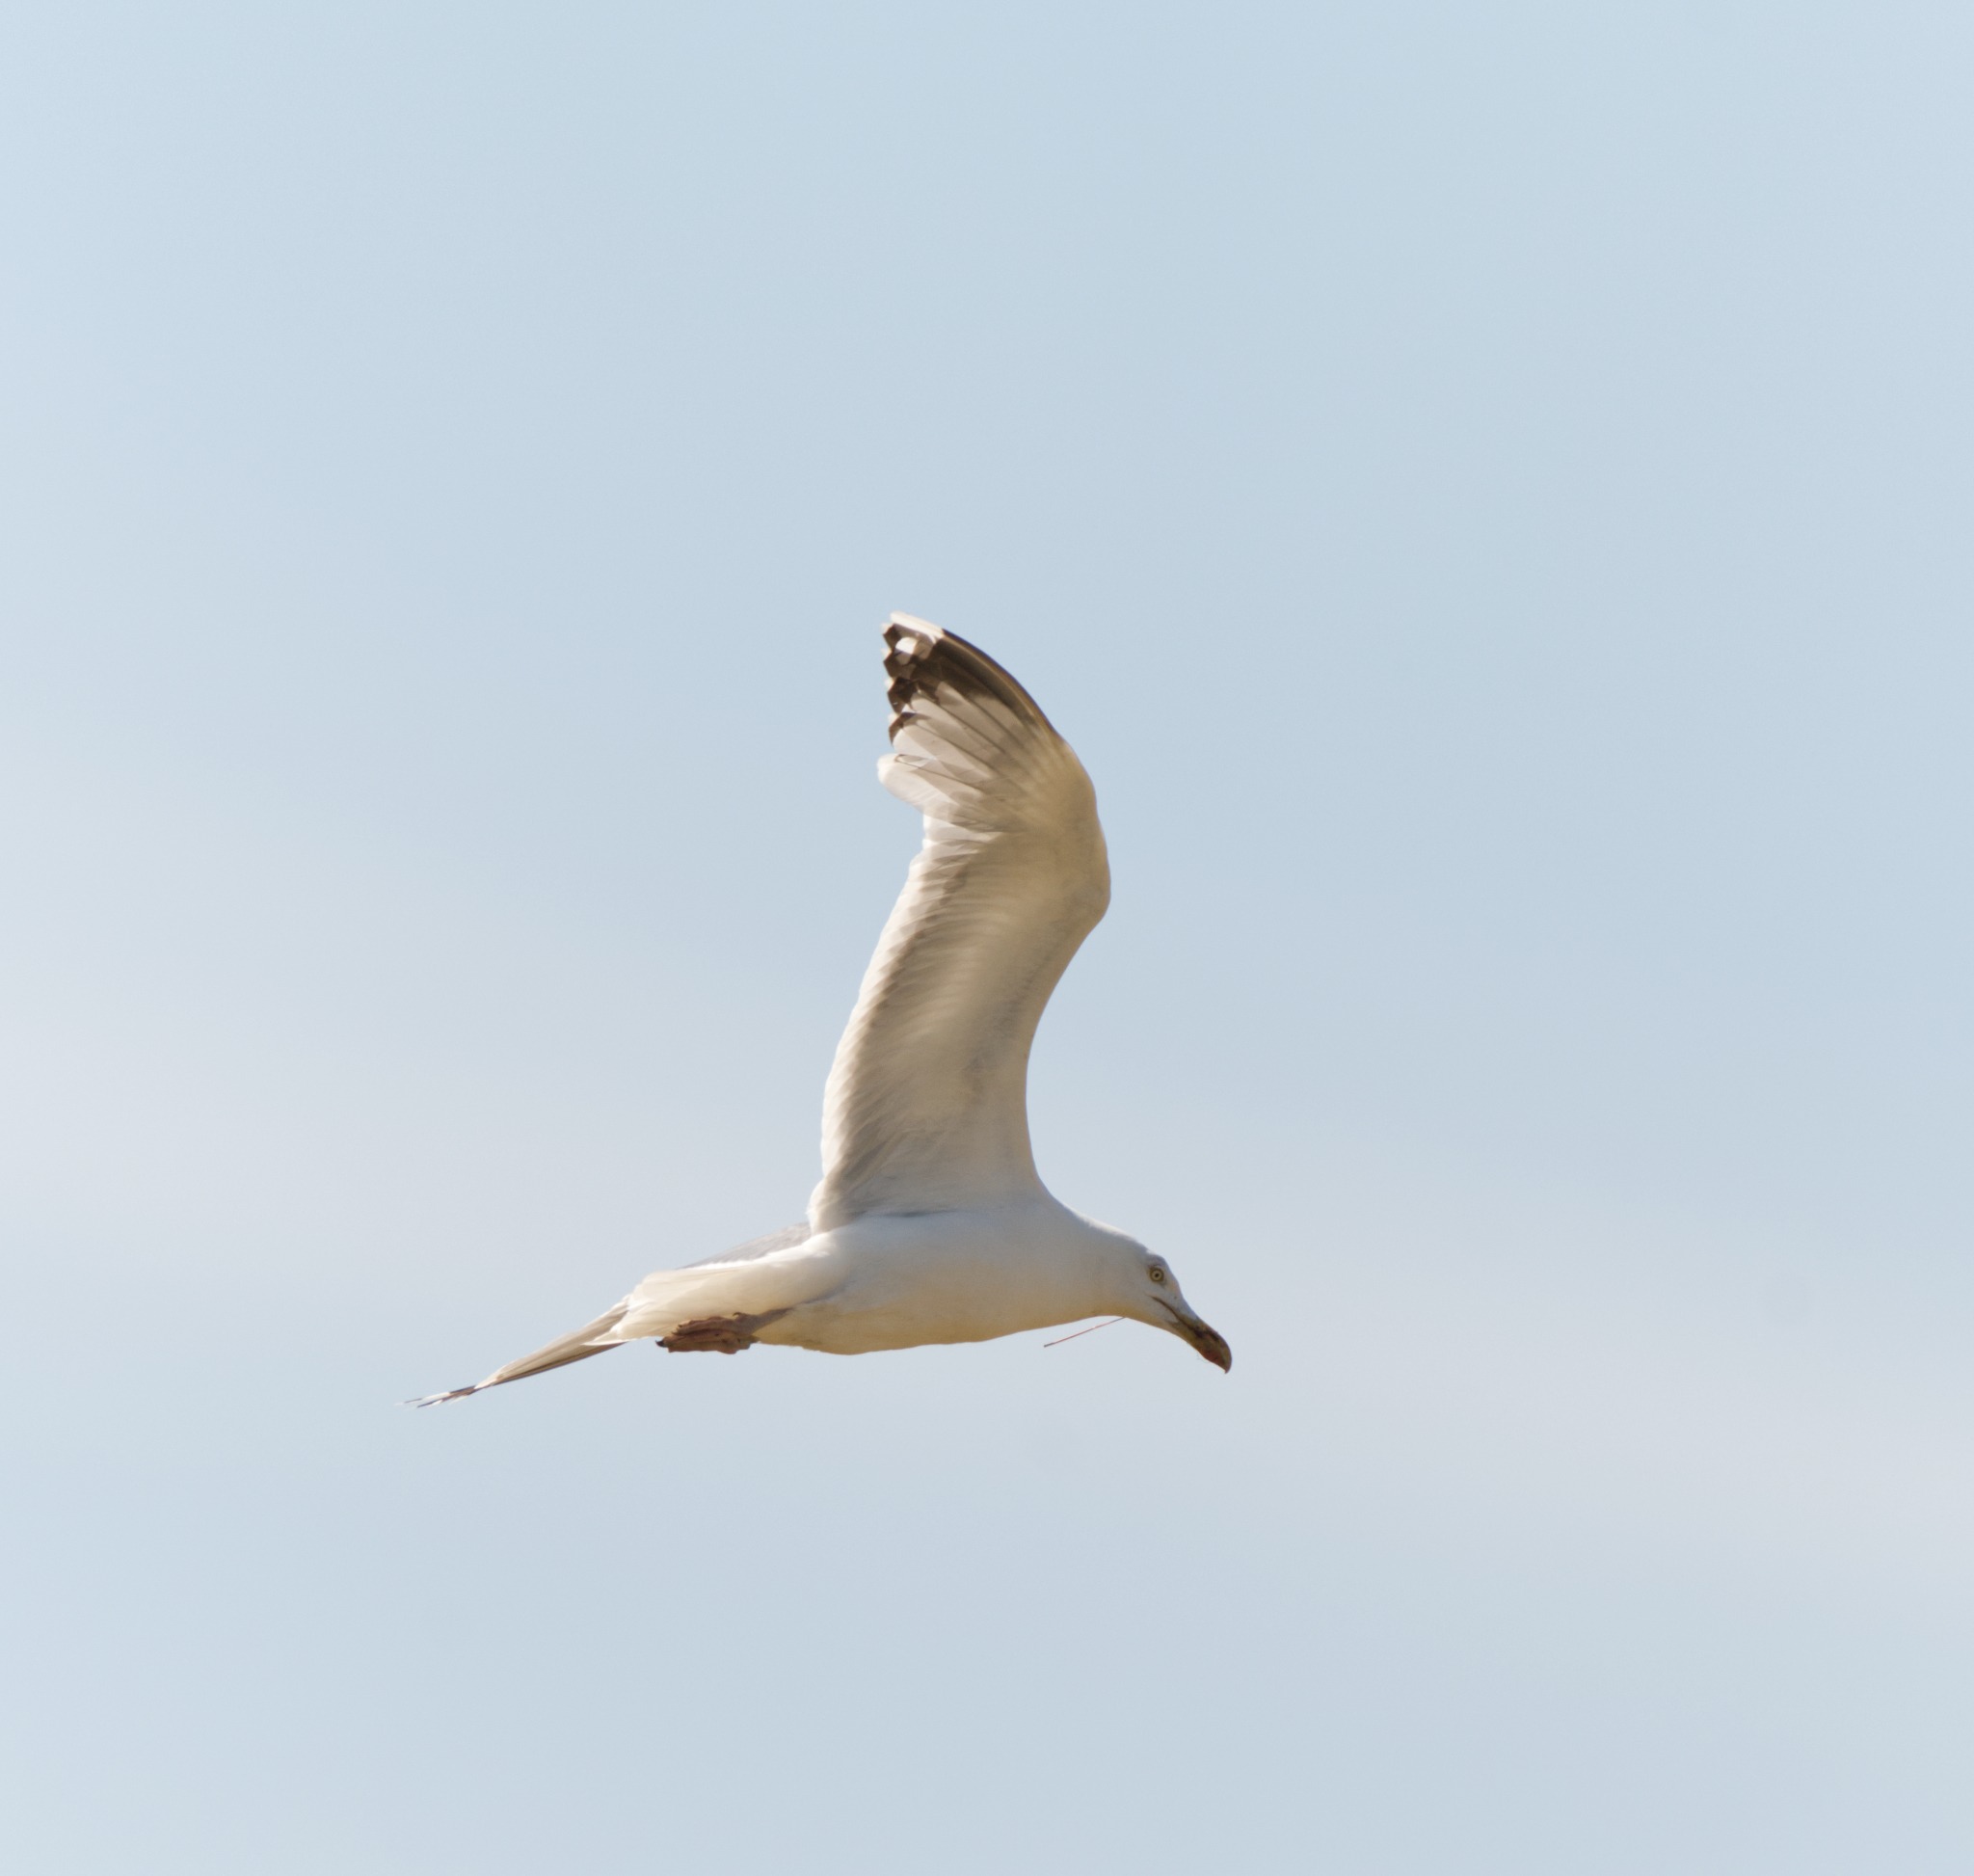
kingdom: Animalia
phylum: Chordata
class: Aves
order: Charadriiformes
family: Laridae
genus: Larus
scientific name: Larus argentatus
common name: Sølvmåge
